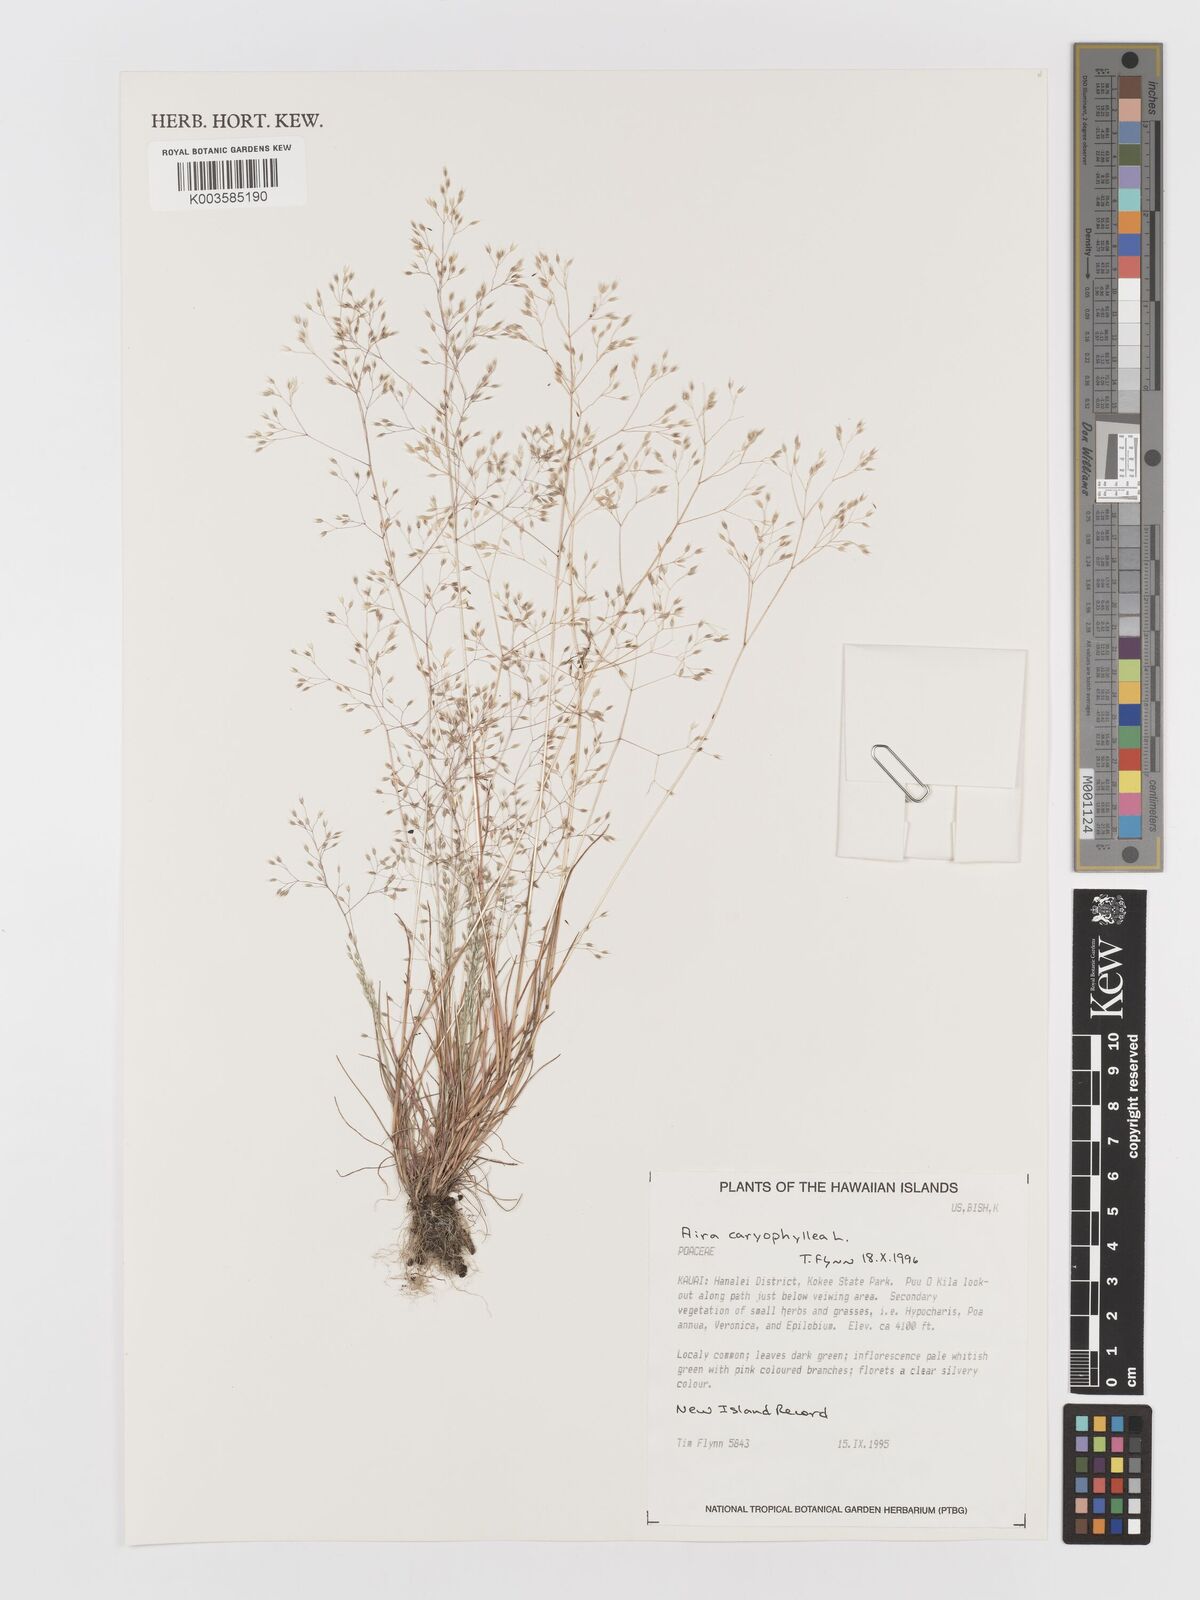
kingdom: Plantae
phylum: Tracheophyta
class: Liliopsida
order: Poales
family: Poaceae
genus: Aira
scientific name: Aira caryophyllea
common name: Silver hairgrass
